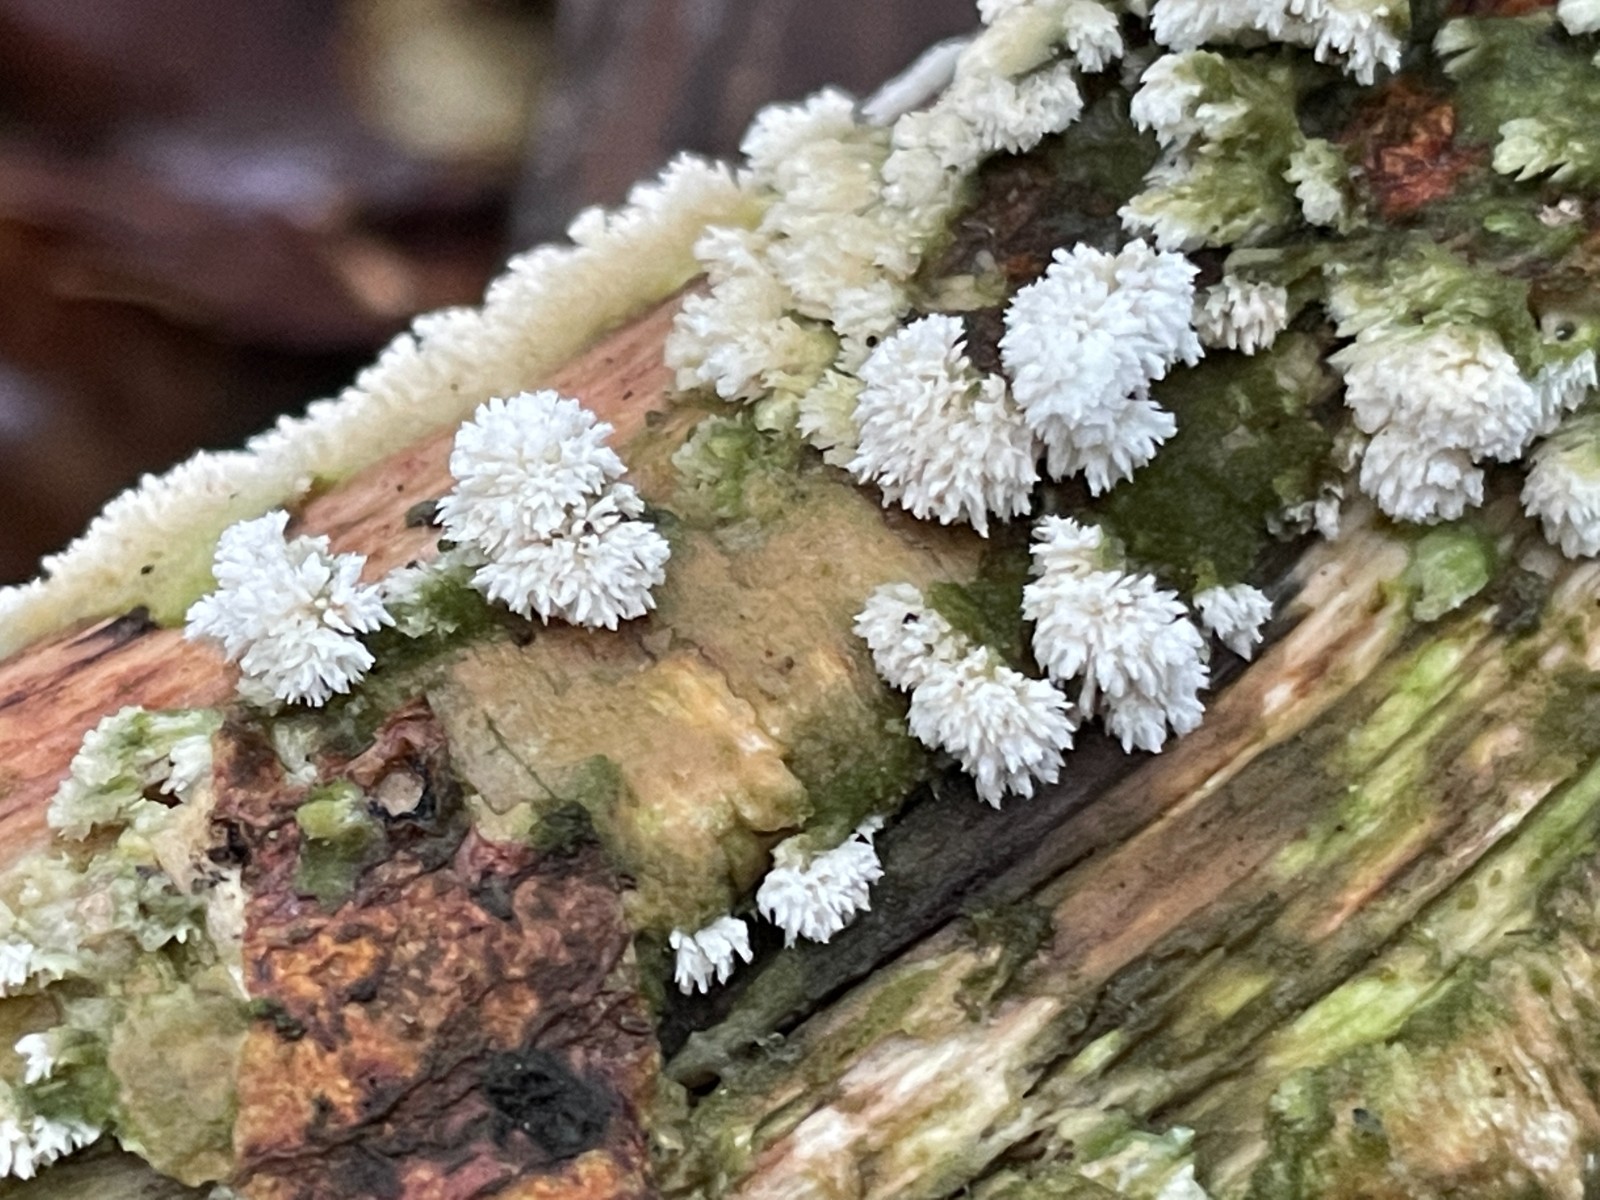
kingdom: Fungi
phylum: Basidiomycota
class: Agaricomycetes
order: Hymenochaetales
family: Schizoporaceae
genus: Schizopora
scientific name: Schizopora paradoxa
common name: hvid tandsvamp
